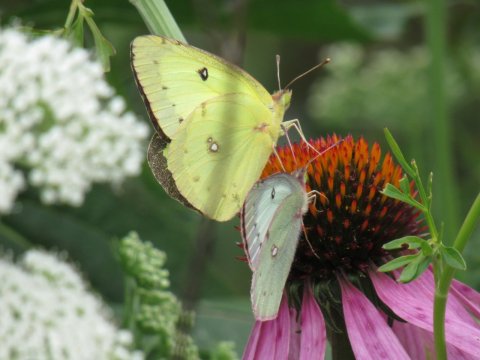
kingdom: Animalia
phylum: Arthropoda
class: Insecta
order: Lepidoptera
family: Pieridae
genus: Colias
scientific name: Colias philodice
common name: Clouded Sulphur
